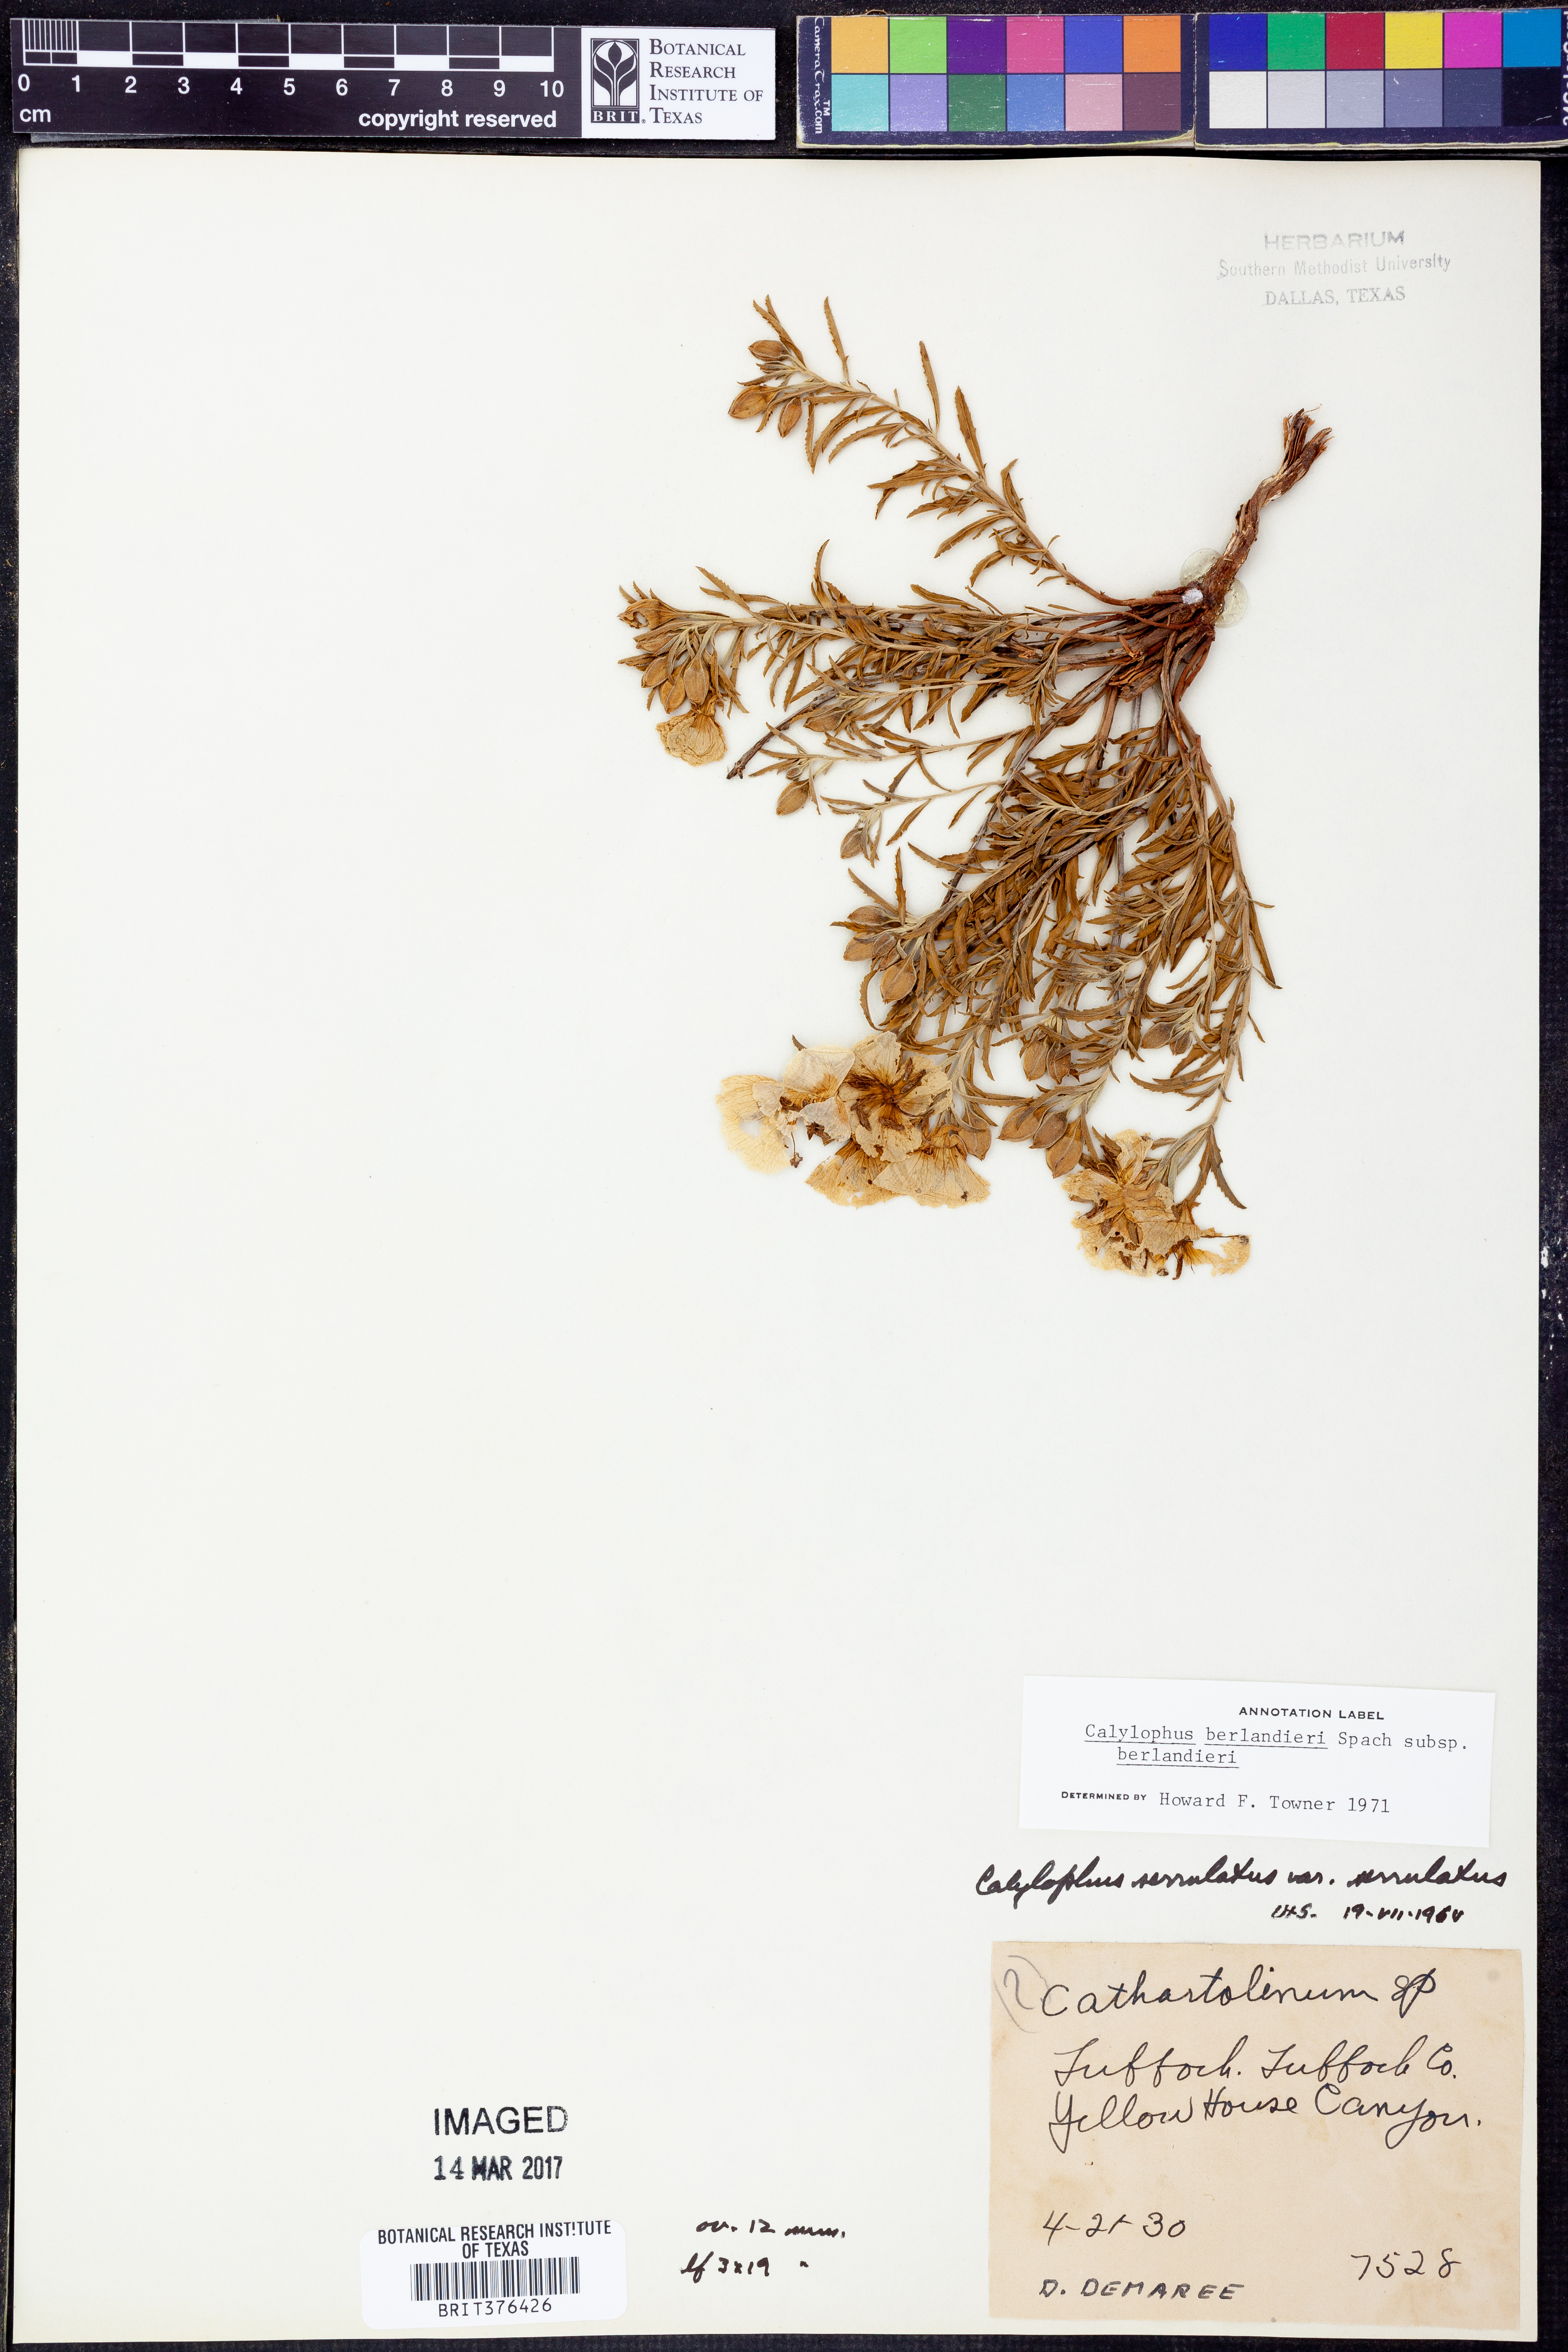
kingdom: Plantae
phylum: Tracheophyta
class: Magnoliopsida
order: Myrtales
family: Onagraceae
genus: Oenothera
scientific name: Oenothera capillifolia
